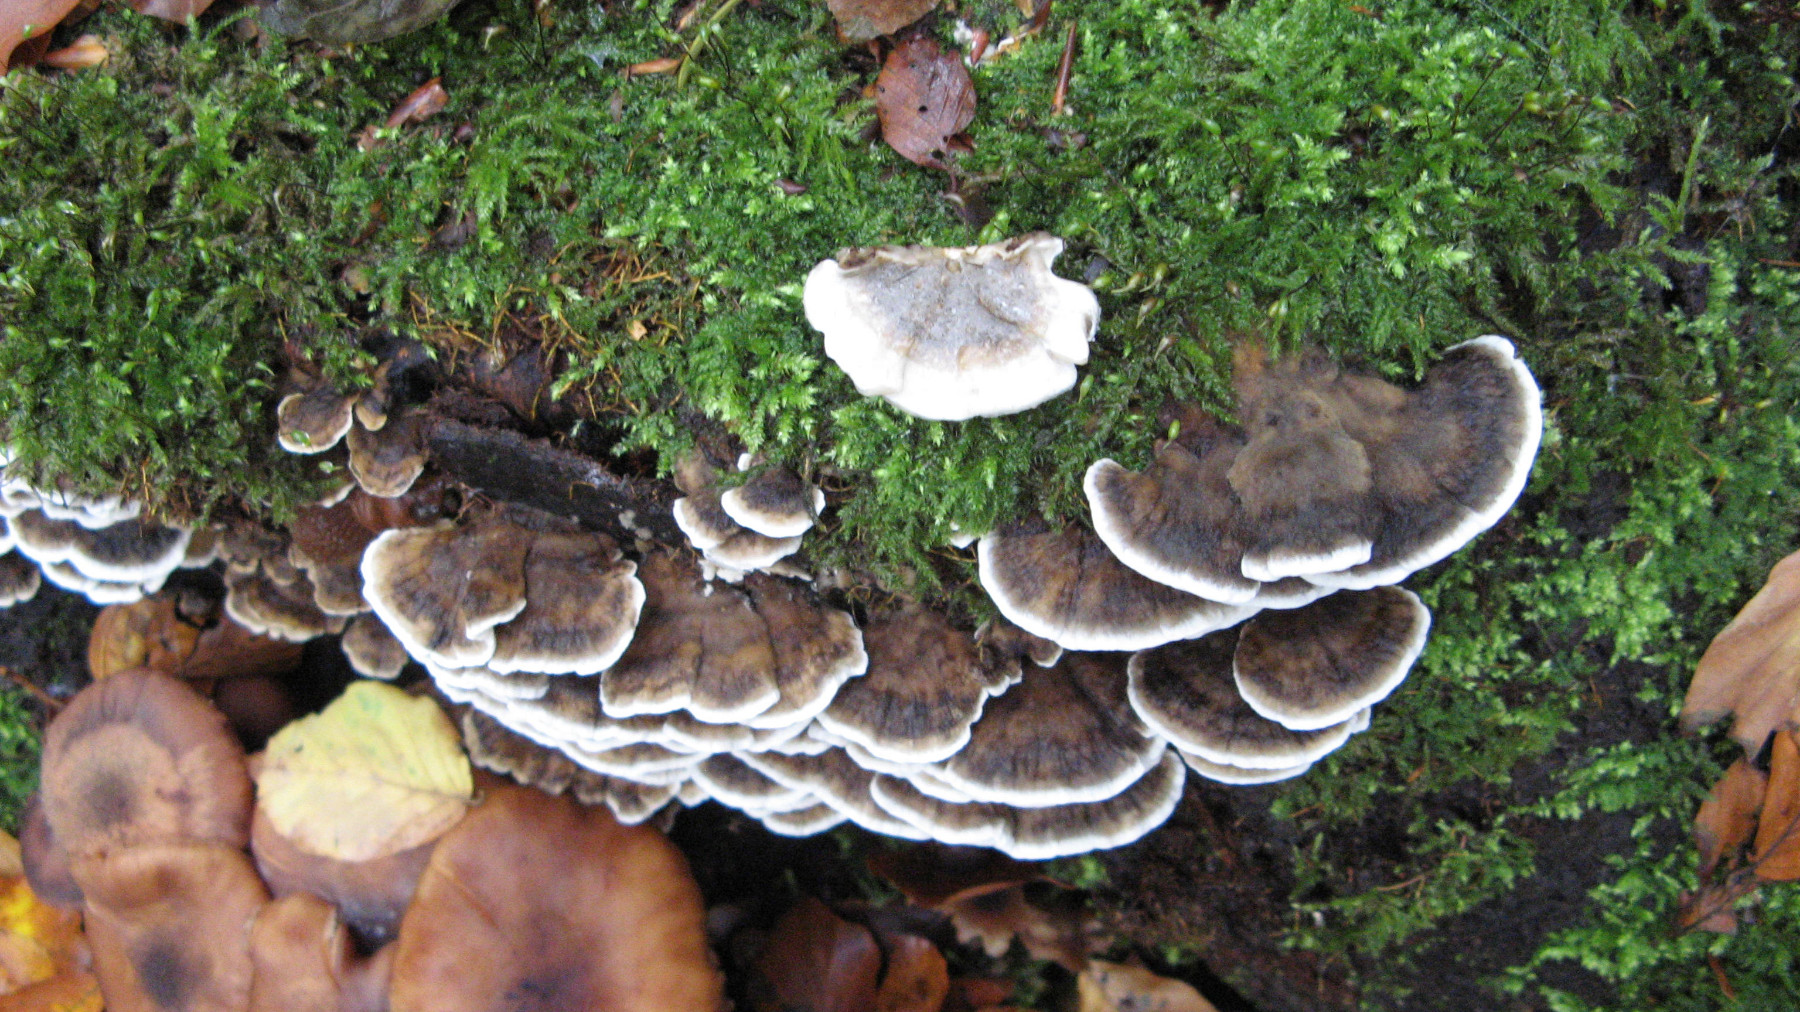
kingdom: Fungi
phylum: Basidiomycota
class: Agaricomycetes
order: Polyporales
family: Phanerochaetaceae
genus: Bjerkandera
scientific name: Bjerkandera adusta
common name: sveden sodporesvamp
